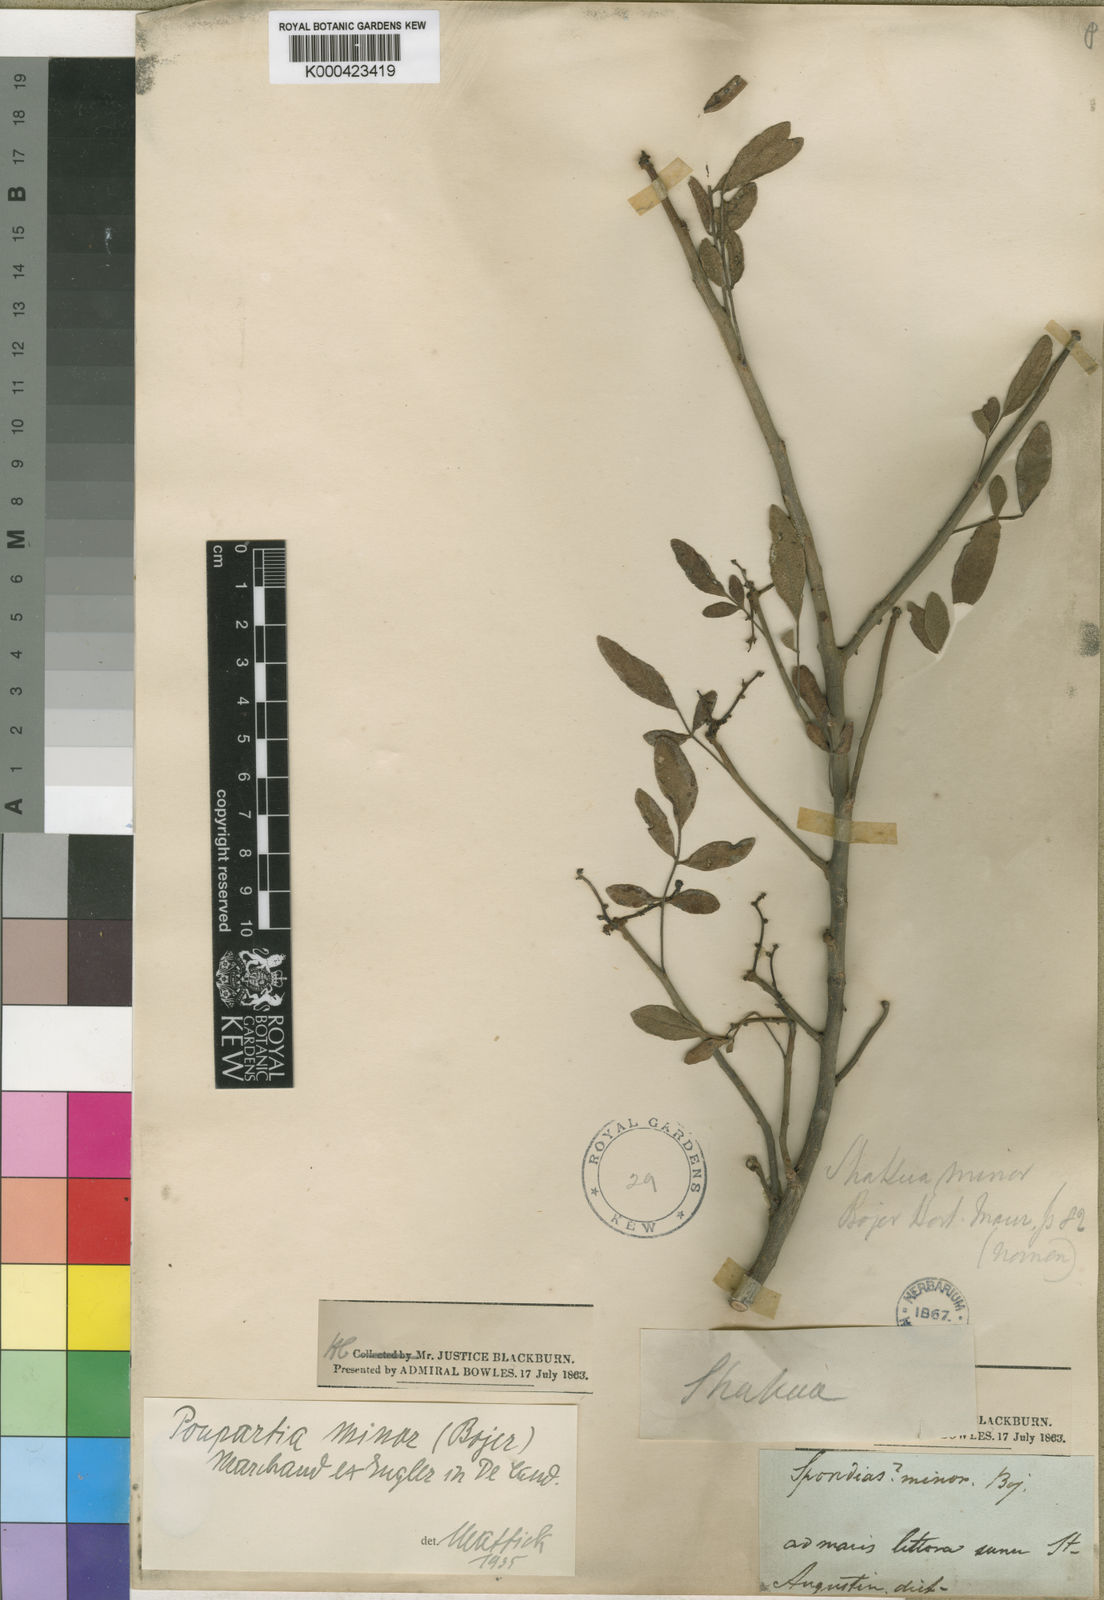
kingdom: Plantae
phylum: Tracheophyta
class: Magnoliopsida
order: Sapindales
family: Anacardiaceae
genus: Poupartia
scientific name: Poupartia
